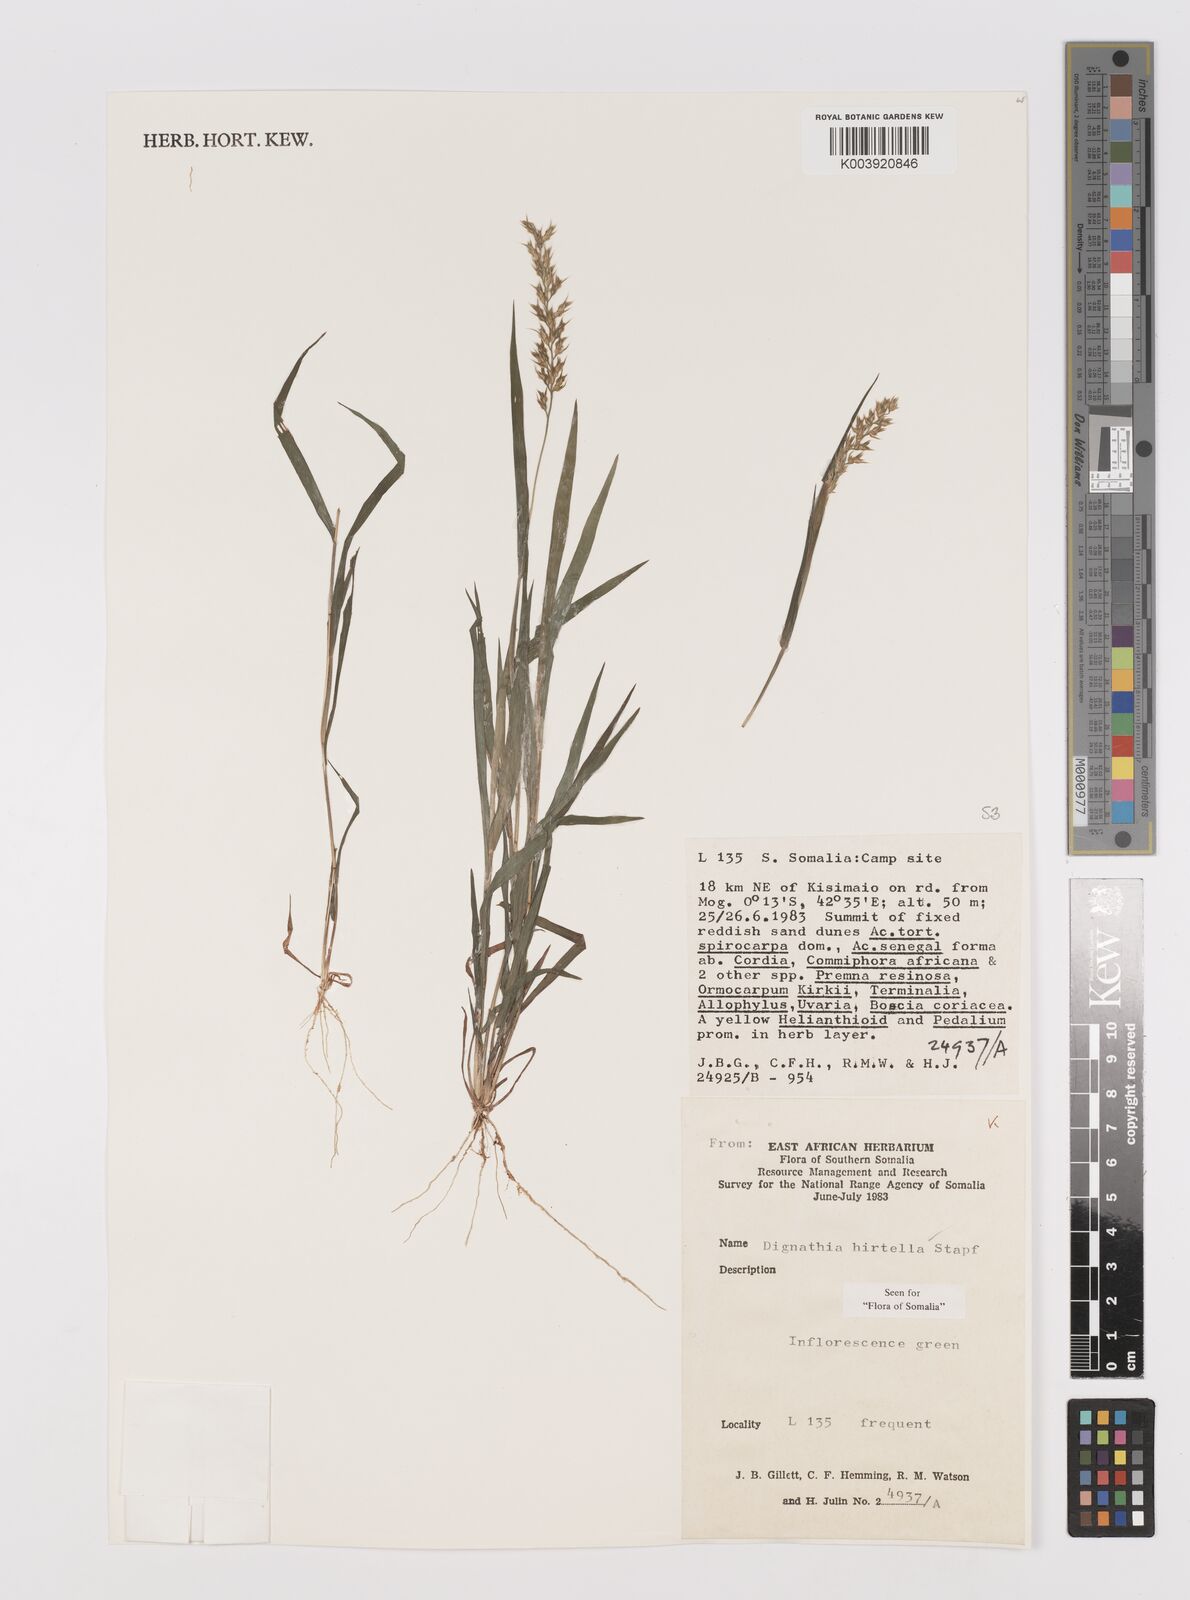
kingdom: Plantae
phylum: Tracheophyta
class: Liliopsida
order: Poales
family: Poaceae
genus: Dignathia
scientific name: Dignathia hirtella
